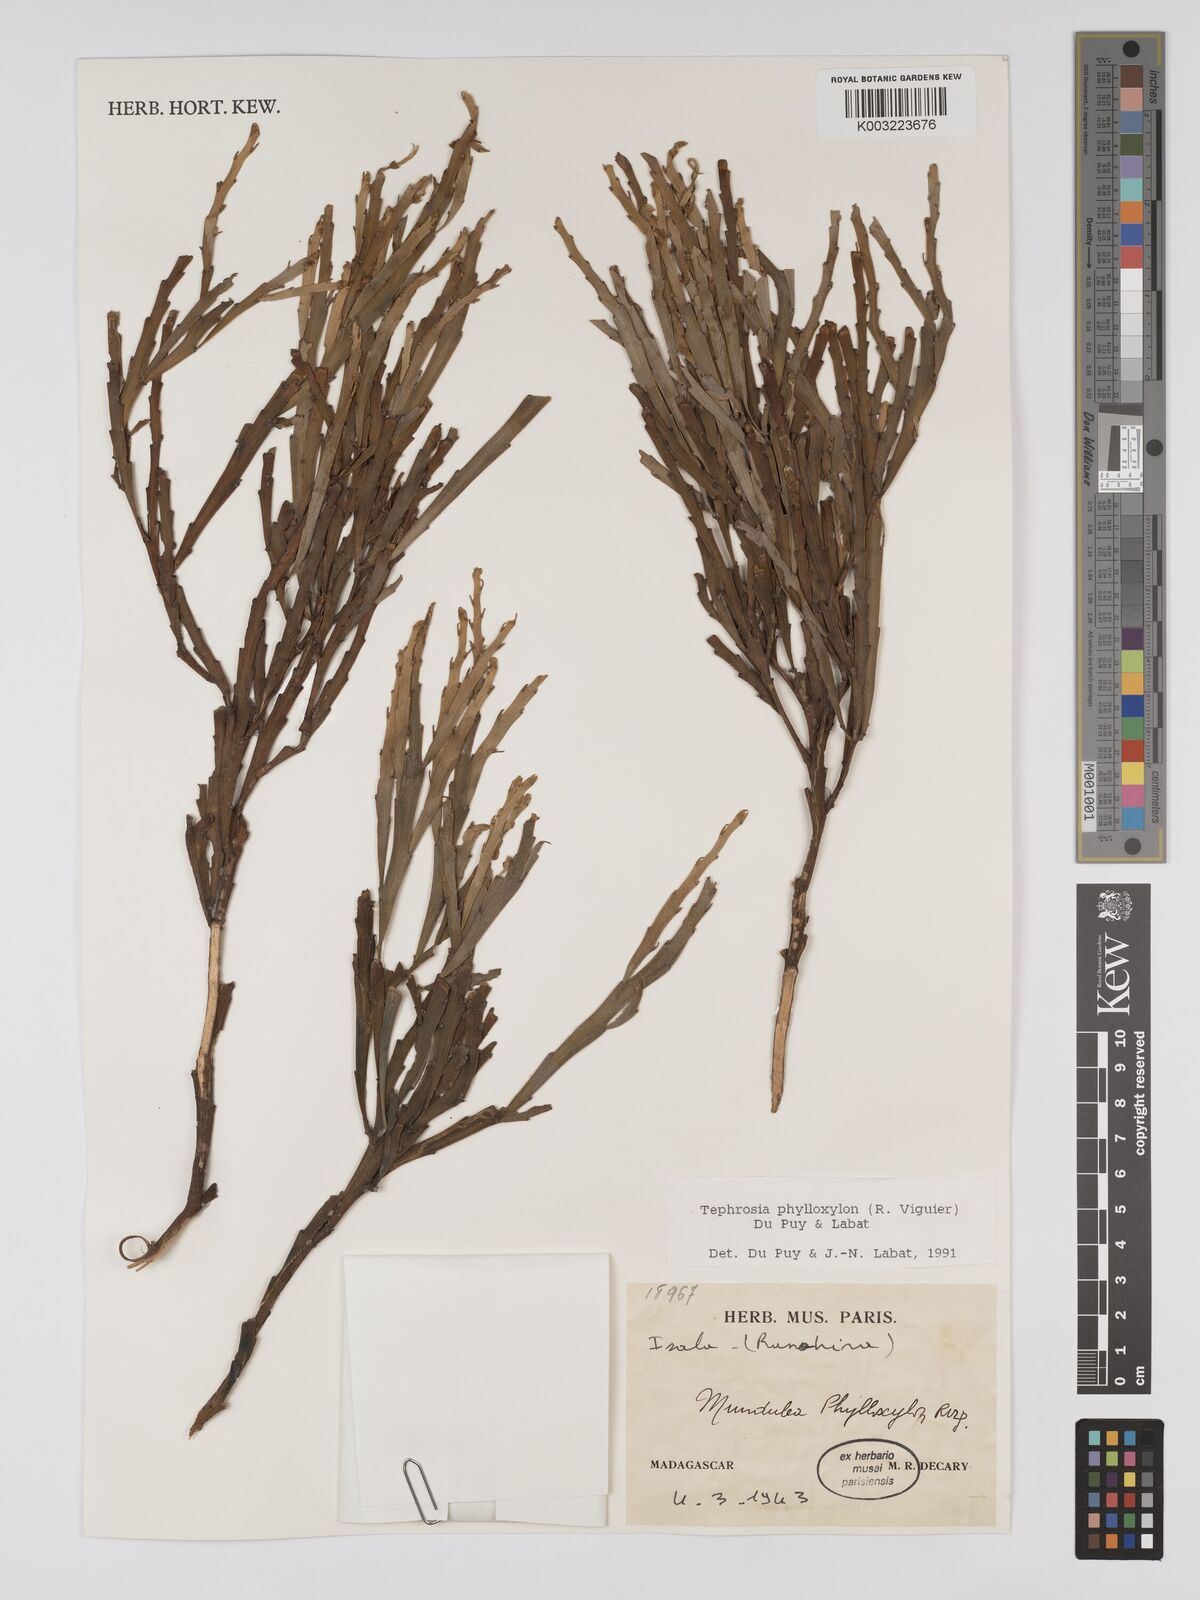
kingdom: Plantae
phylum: Tracheophyta
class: Magnoliopsida
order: Fabales
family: Fabaceae
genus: Tephrosia
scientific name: Tephrosia phylloxylon
